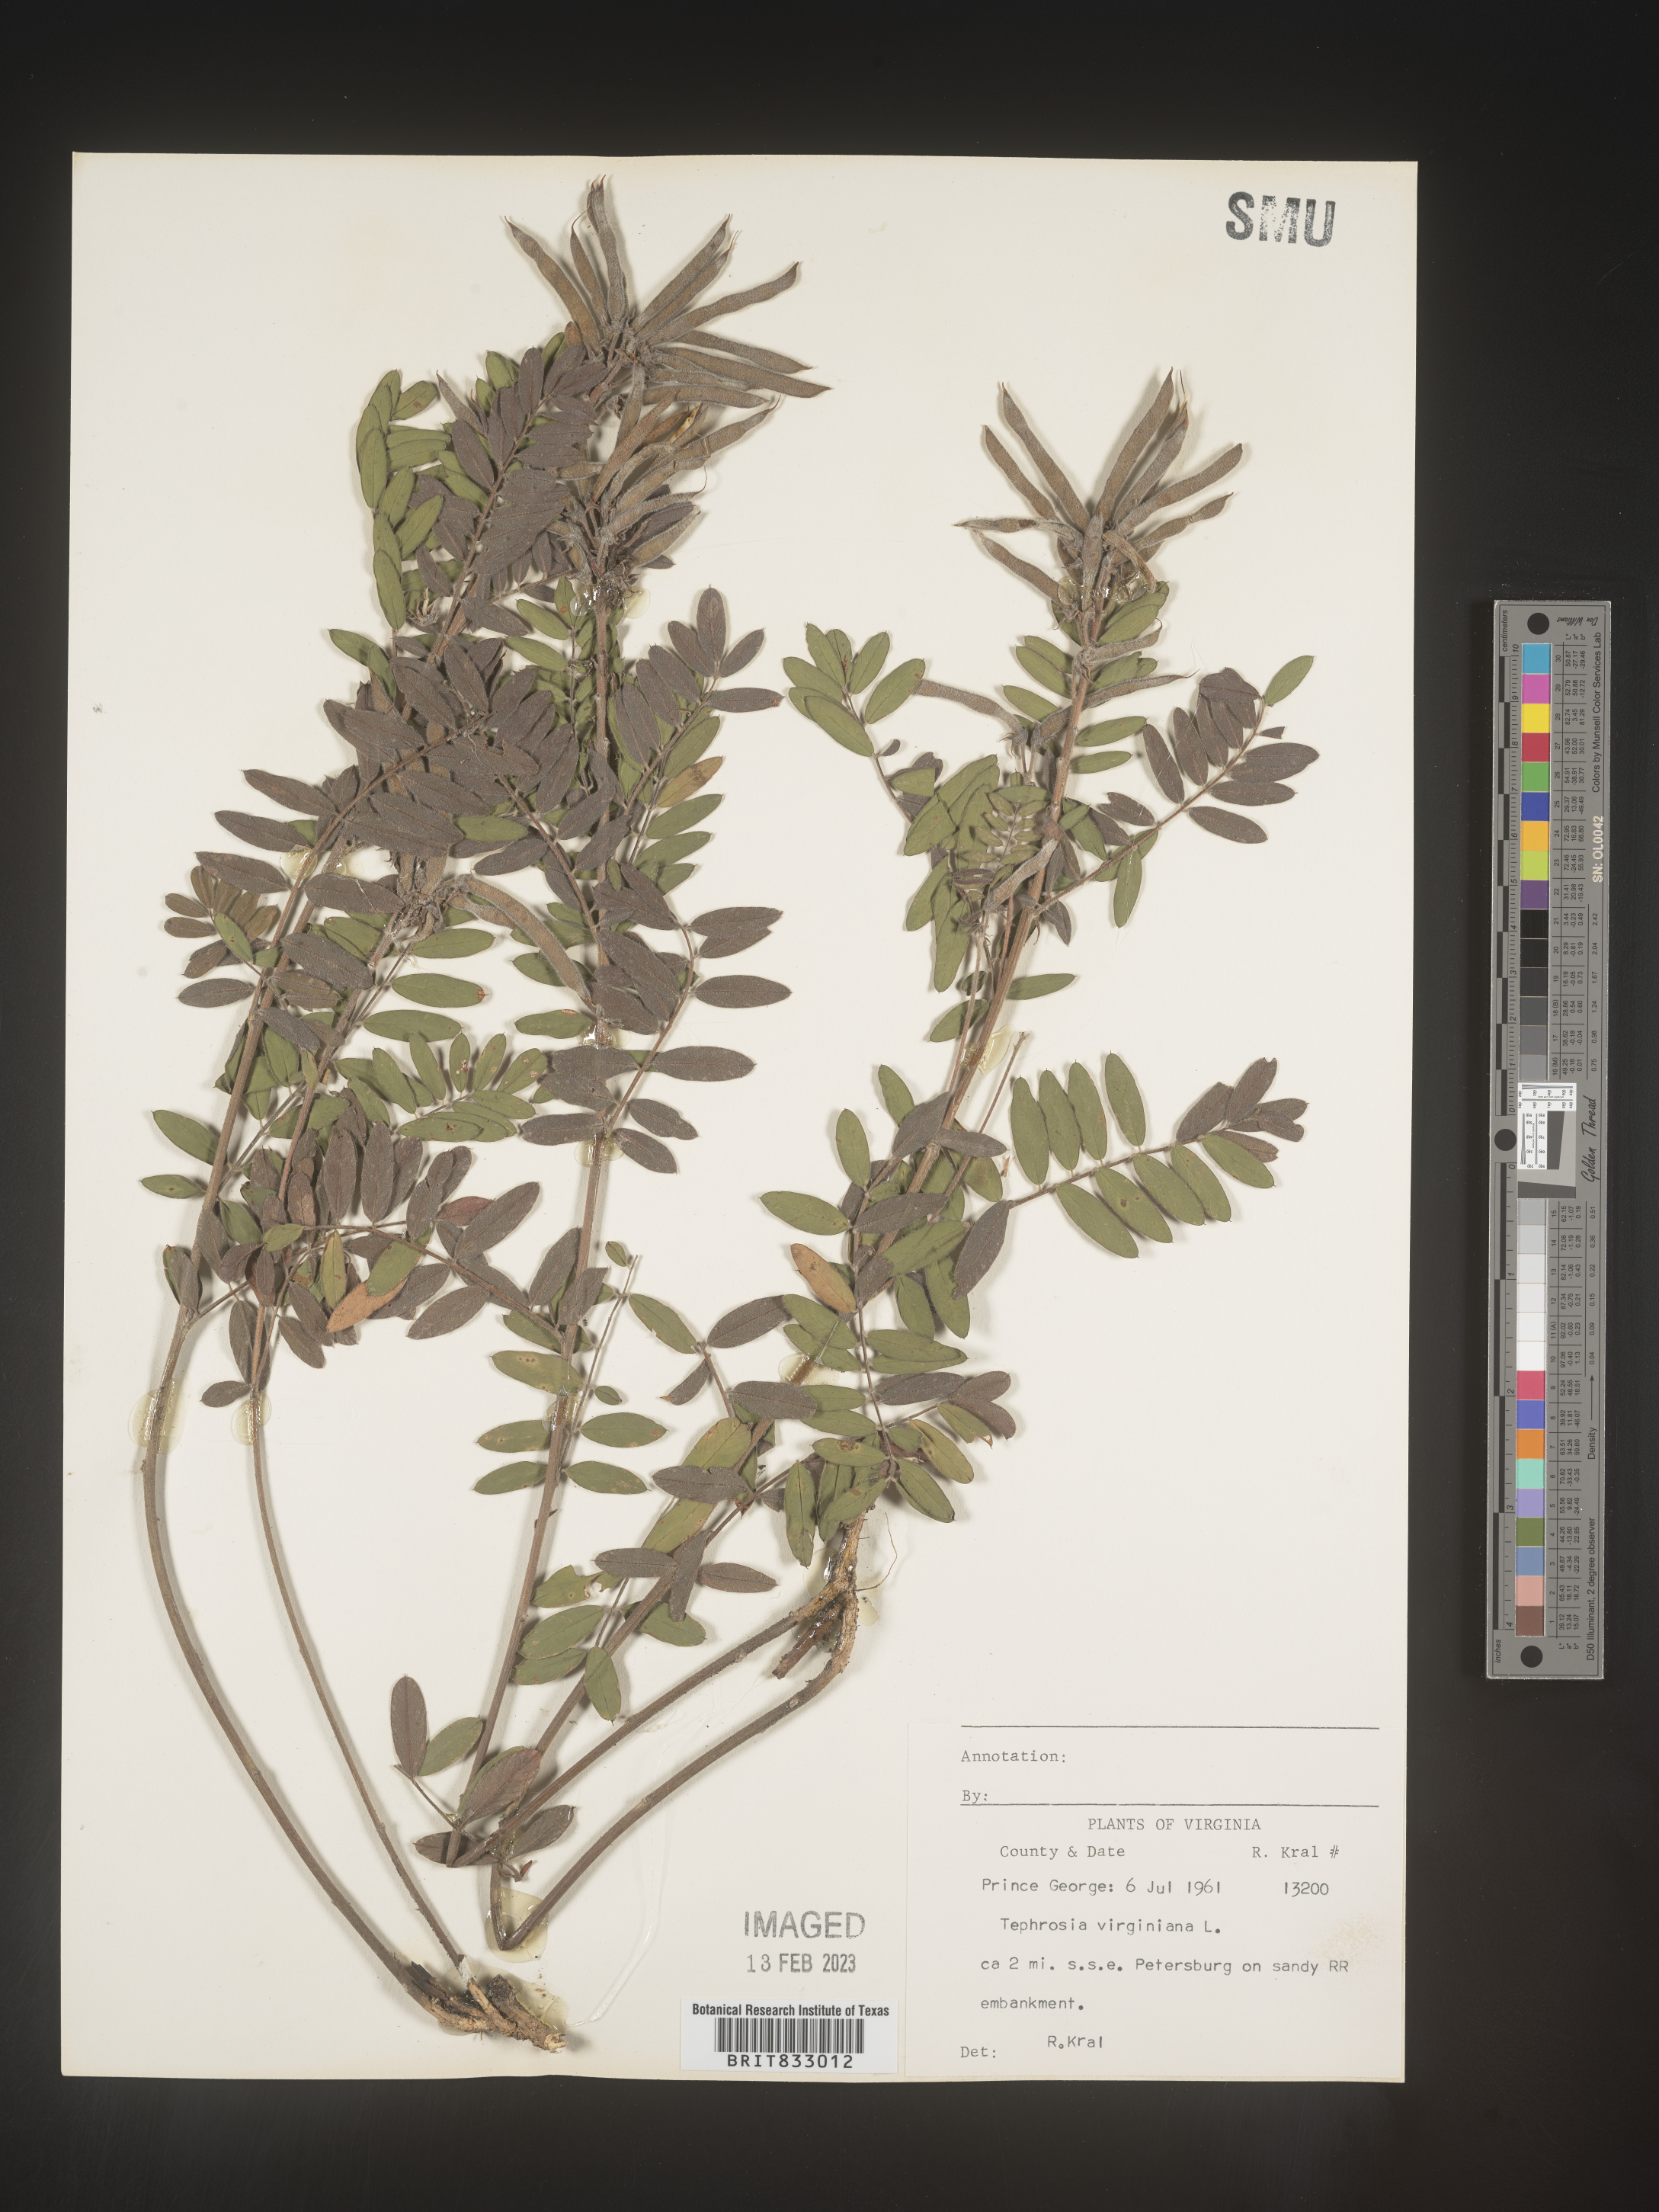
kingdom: Plantae
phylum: Tracheophyta
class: Magnoliopsida
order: Fabales
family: Fabaceae
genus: Tephrosia
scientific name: Tephrosia virginiana
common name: Rabbit-pea
